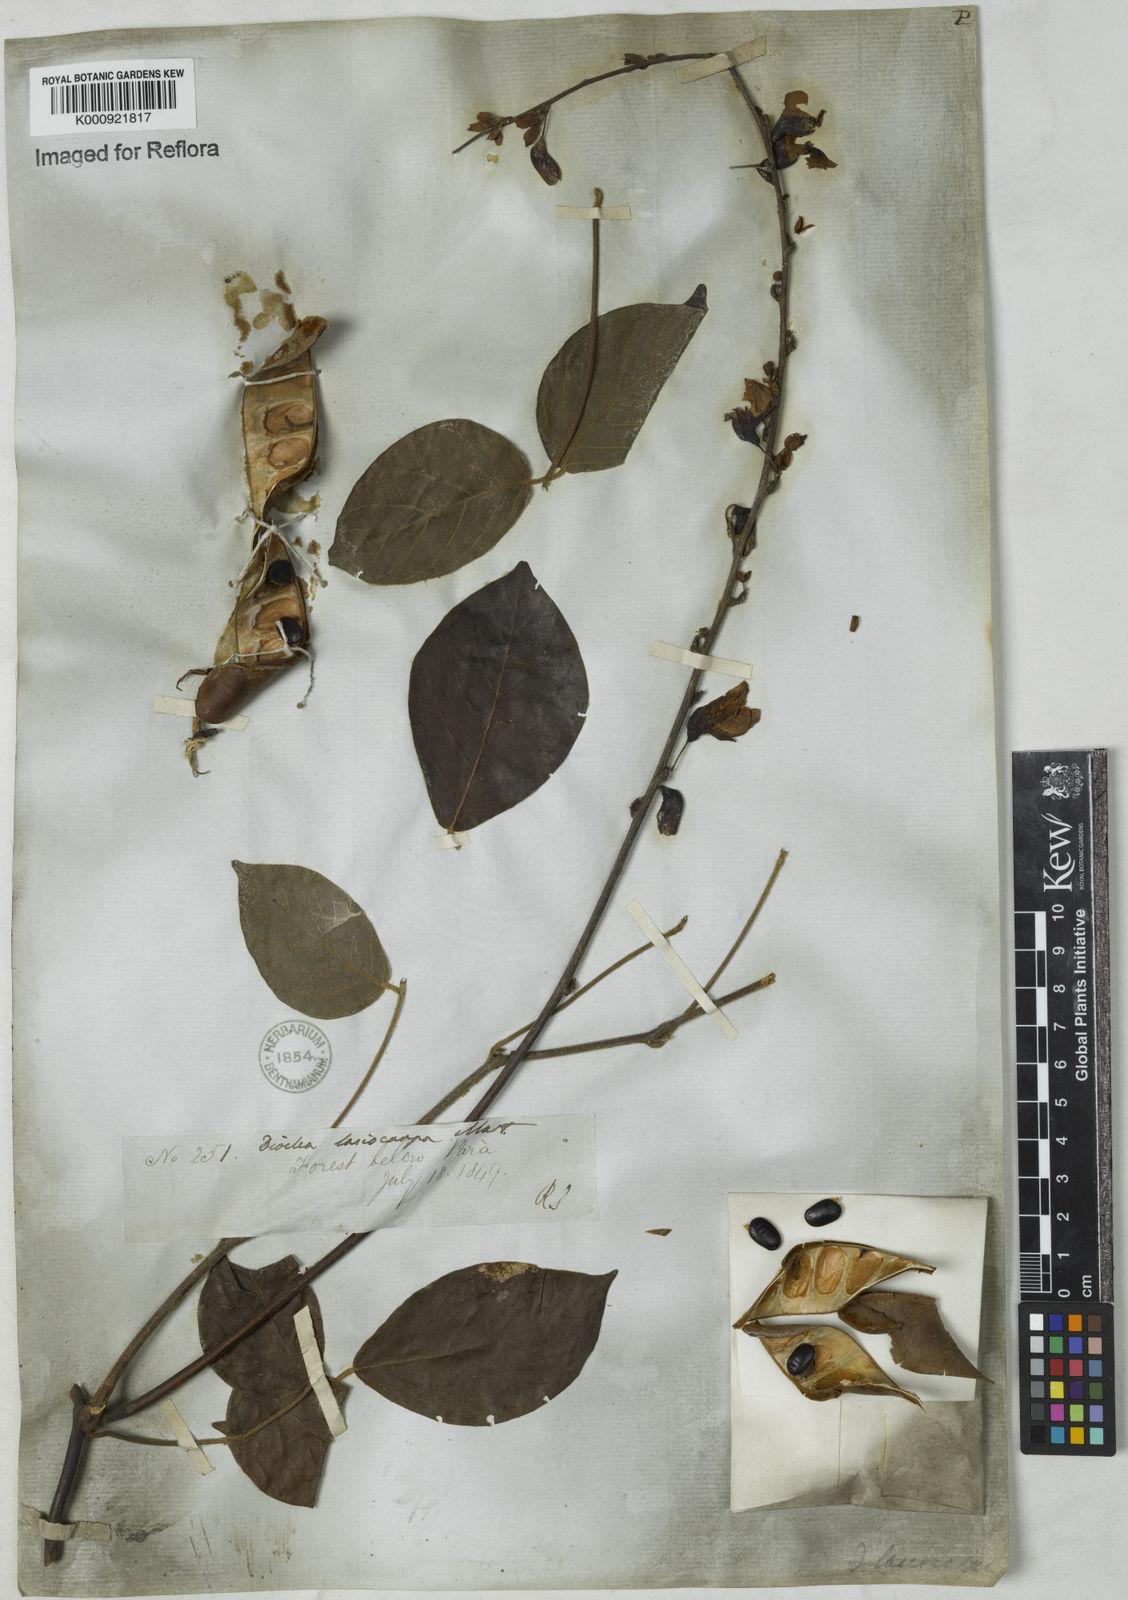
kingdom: Plantae
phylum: Tracheophyta
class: Magnoliopsida
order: Fabales
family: Fabaceae
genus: Dioclea
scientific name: Dioclea virgata
